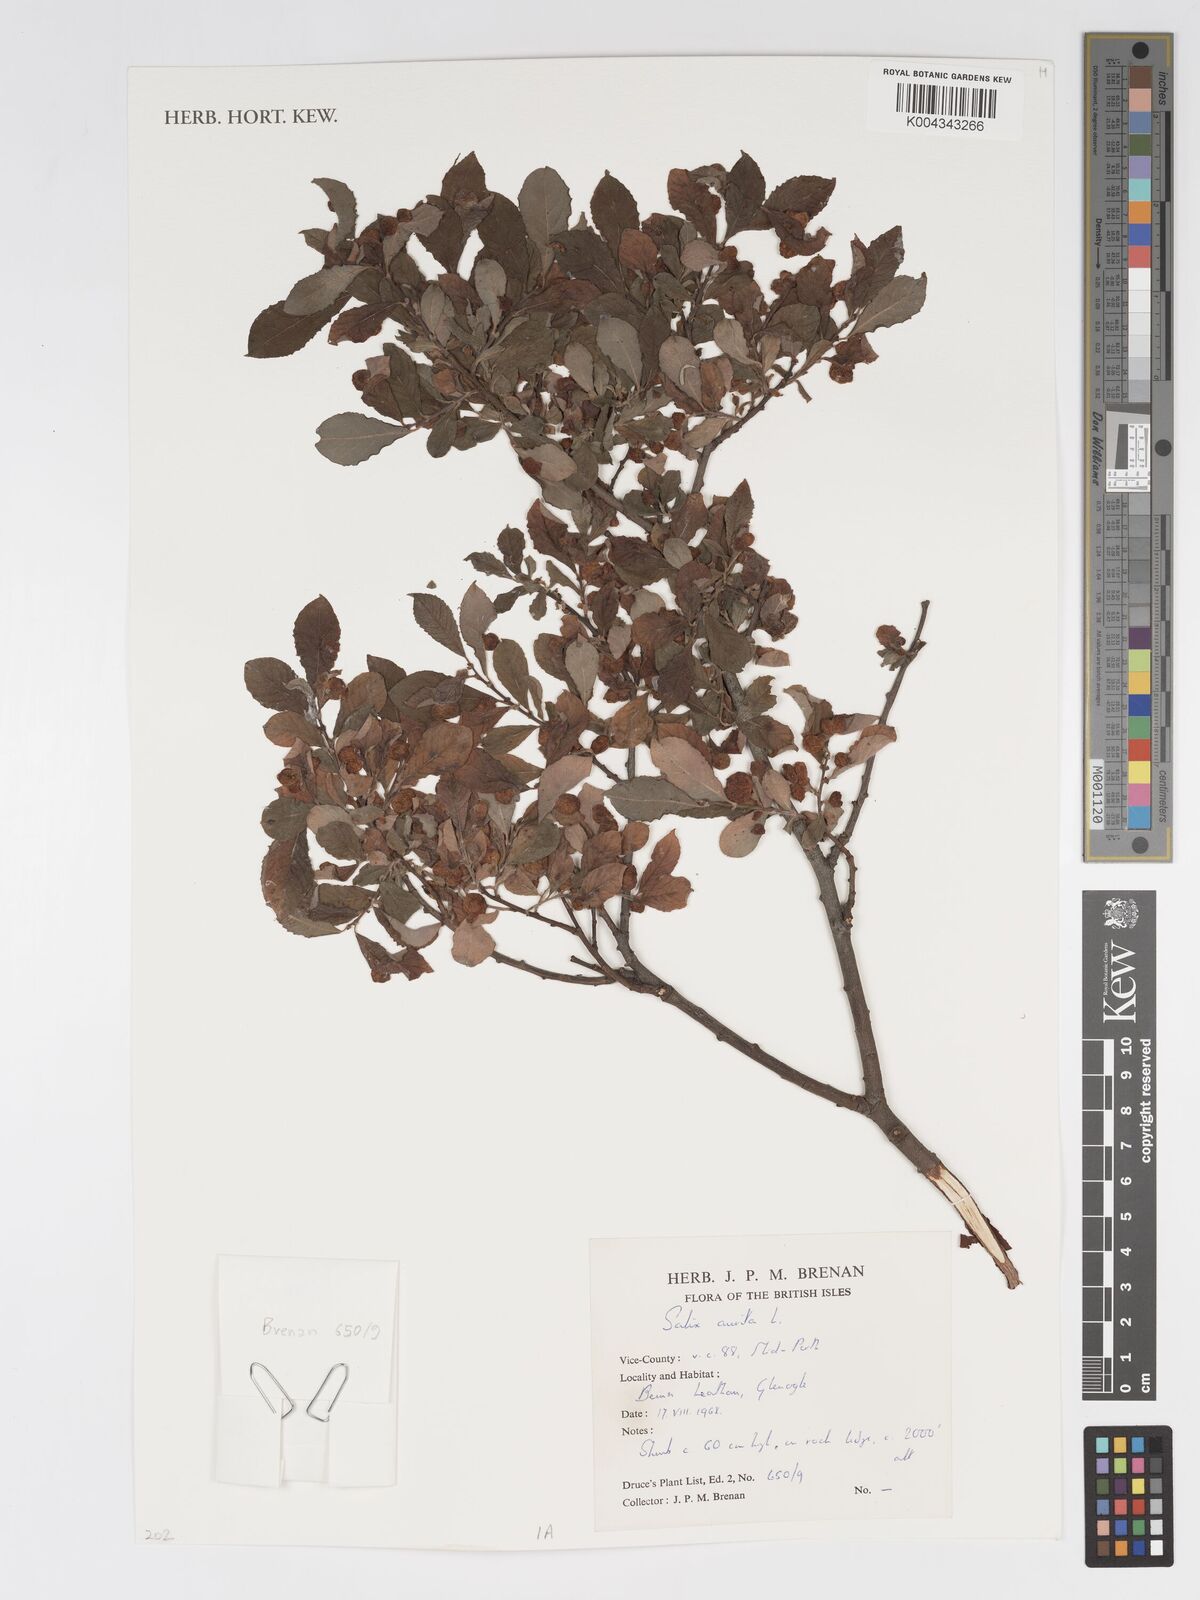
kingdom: Plantae
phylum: Tracheophyta
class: Magnoliopsida
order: Malpighiales
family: Salicaceae
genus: Salix
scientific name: Salix aurita
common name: Eared willow
